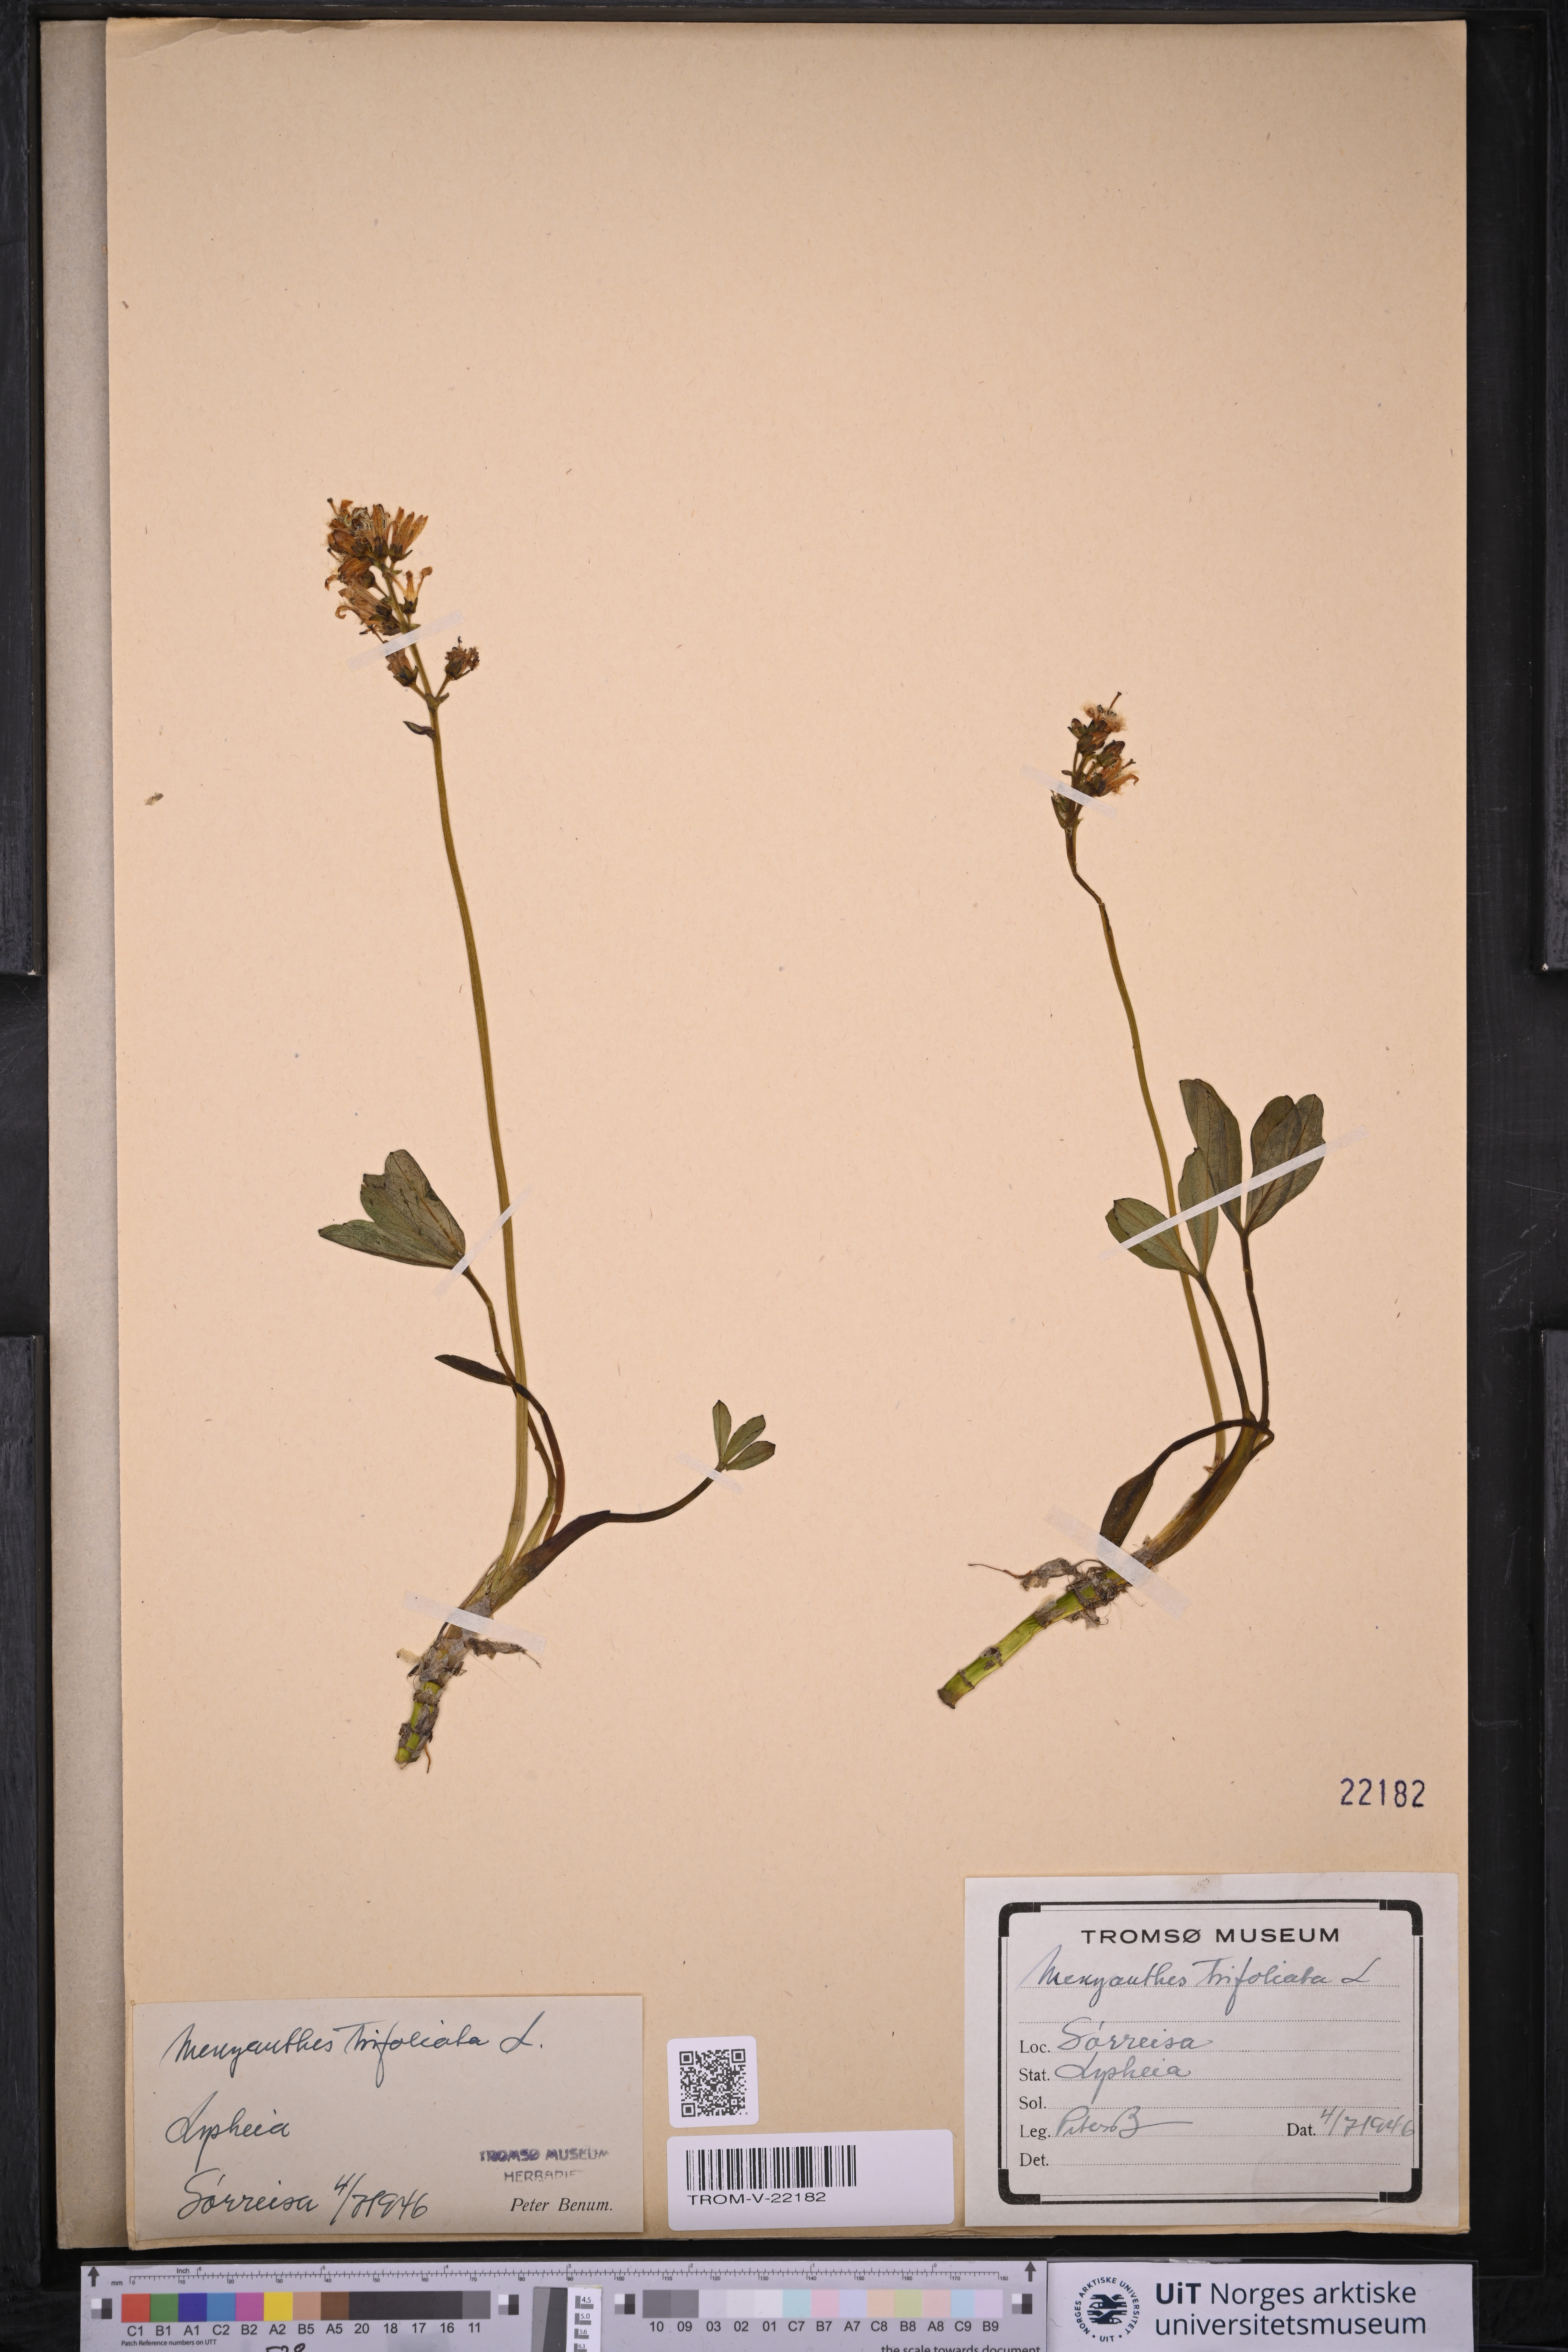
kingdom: Plantae
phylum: Tracheophyta
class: Magnoliopsida
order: Asterales
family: Menyanthaceae
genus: Menyanthes
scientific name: Menyanthes trifoliata
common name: Bogbean
